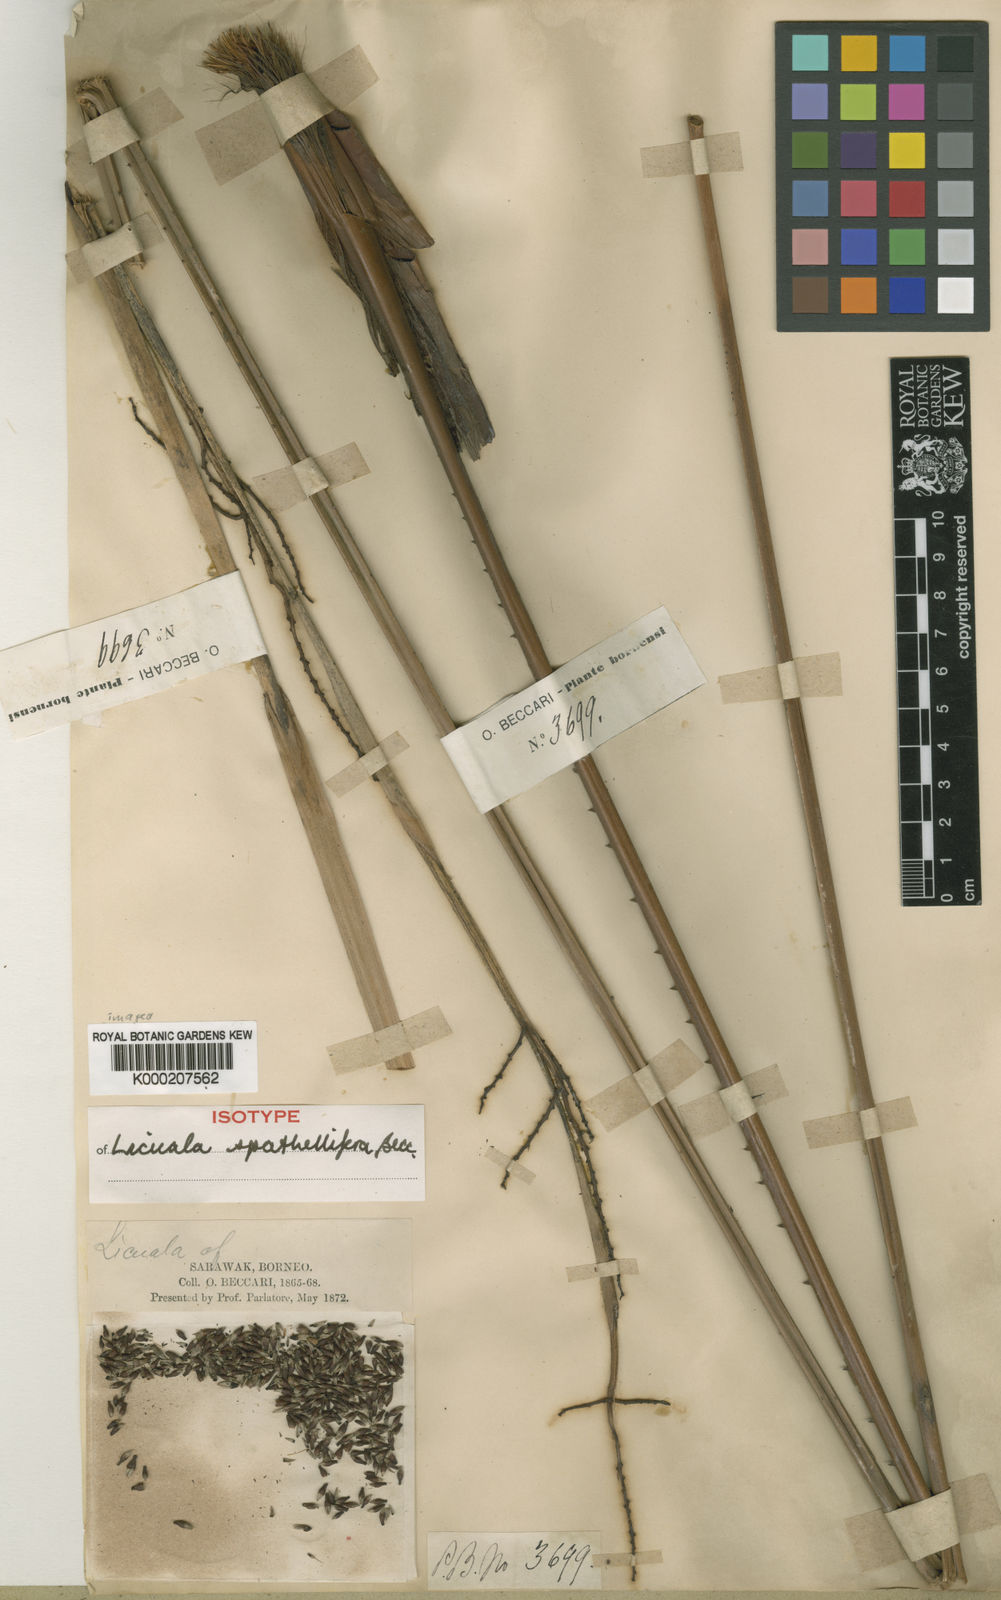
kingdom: Plantae
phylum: Tracheophyta
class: Liliopsida
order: Arecales
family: Arecaceae
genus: Licuala
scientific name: Licuala spathellifera
